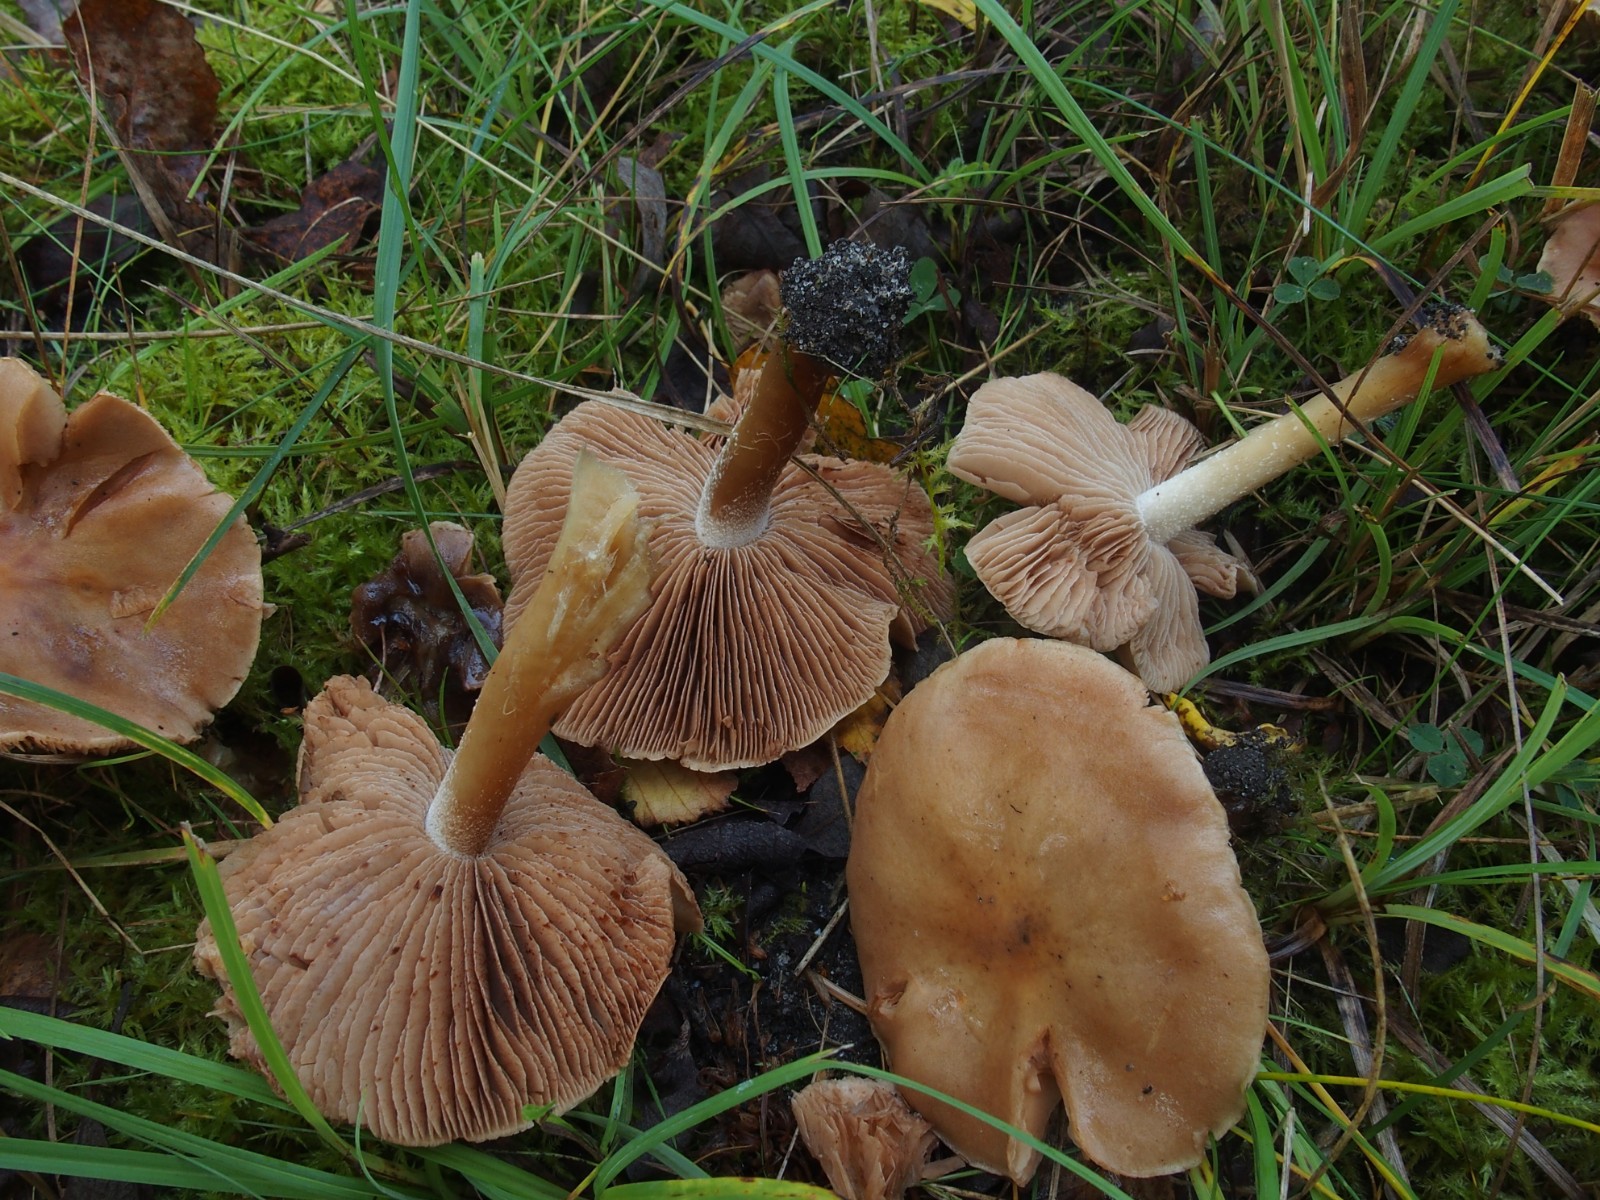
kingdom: Fungi
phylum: Basidiomycota
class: Agaricomycetes
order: Agaricales
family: Hymenogastraceae
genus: Hebeloma
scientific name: Hebeloma
